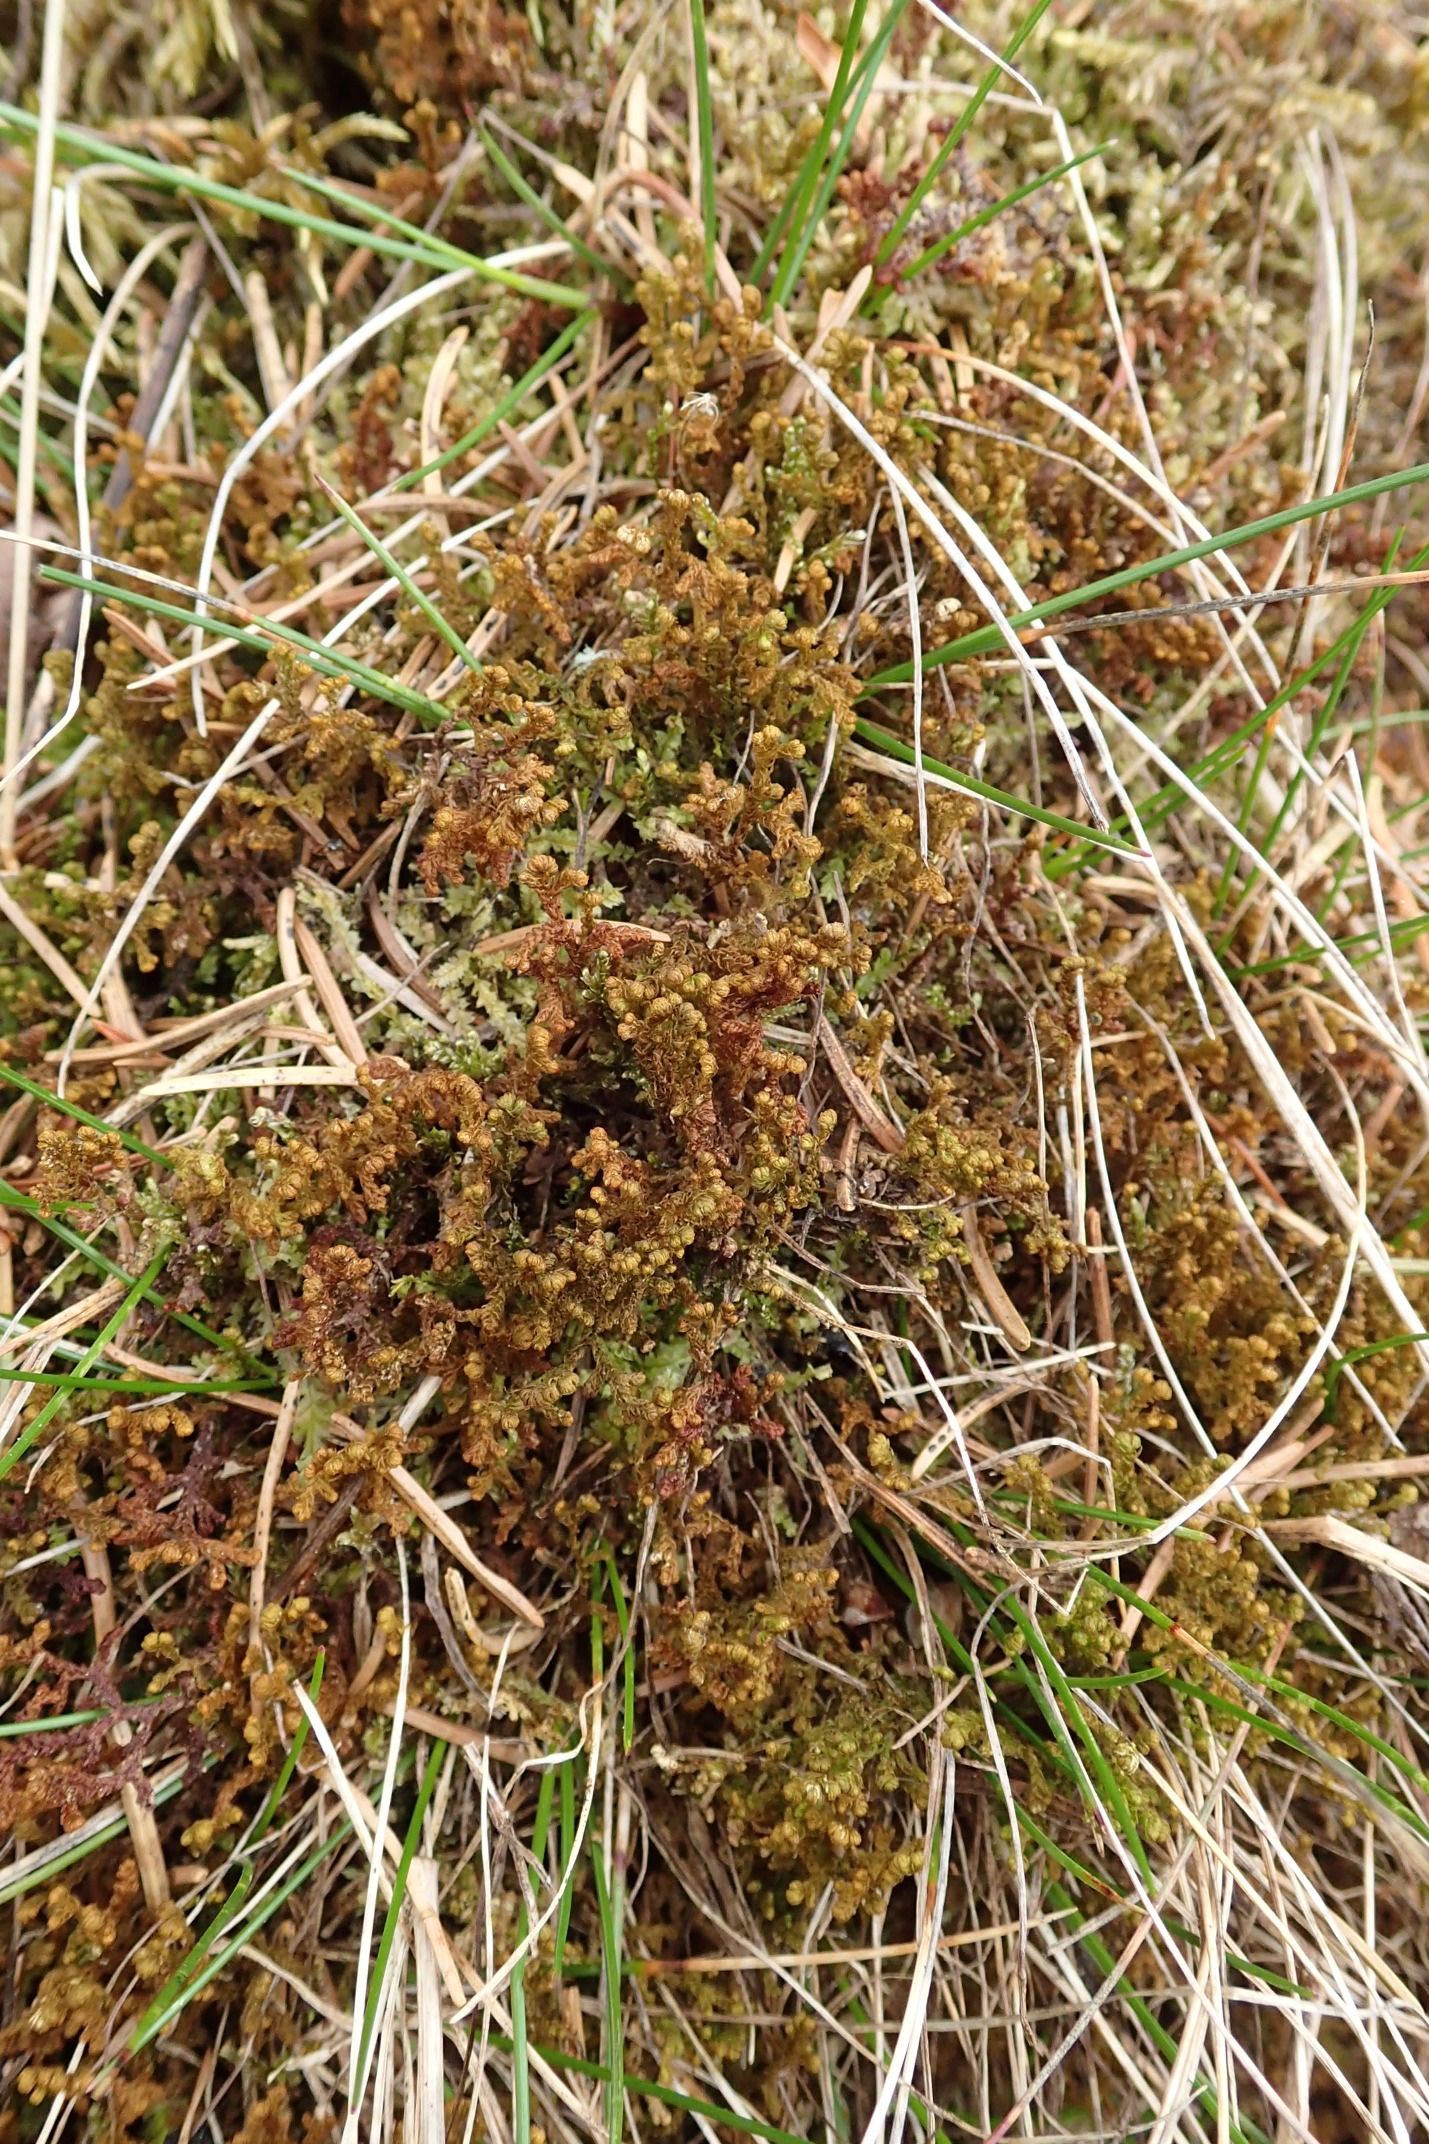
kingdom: Plantae
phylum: Marchantiophyta
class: Jungermanniopsida
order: Ptilidiales
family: Ptilidiaceae
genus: Ptilidium
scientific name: Ptilidium ciliare
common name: Almindelig frynsemos
